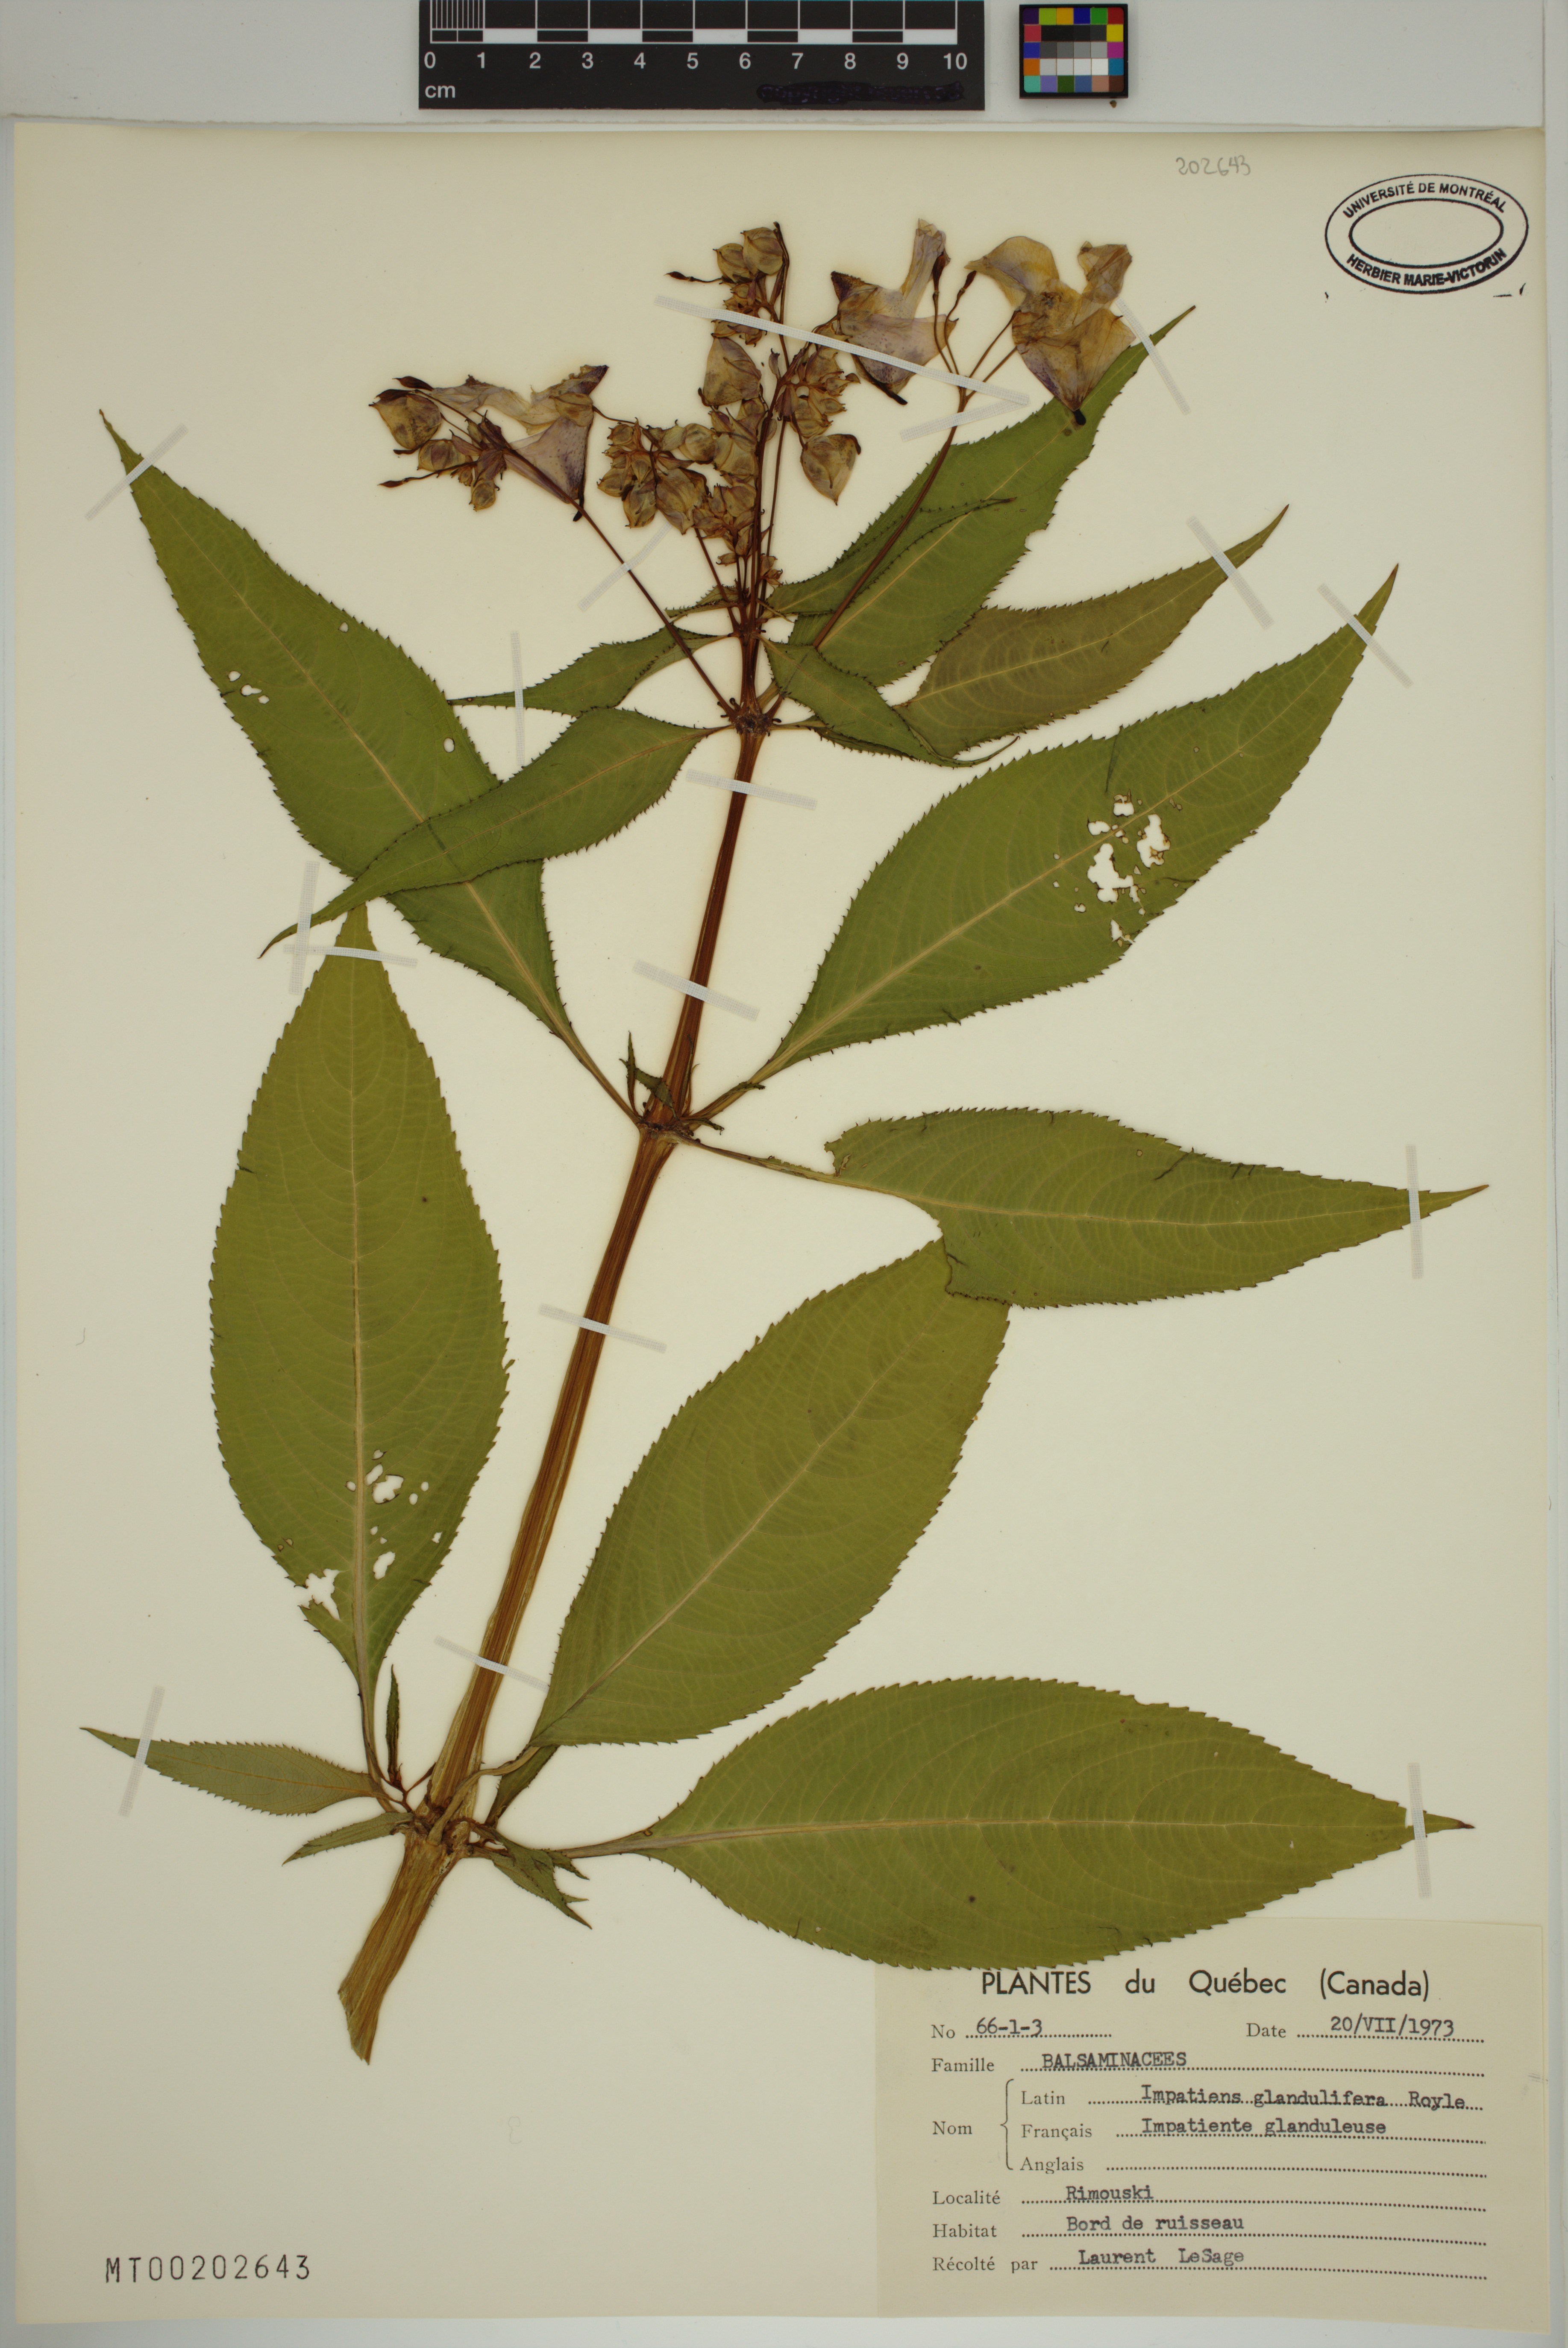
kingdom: Plantae
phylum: Tracheophyta
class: Magnoliopsida
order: Ericales
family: Balsaminaceae
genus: Impatiens
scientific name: Impatiens glandulifera
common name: Himalayan balsam
